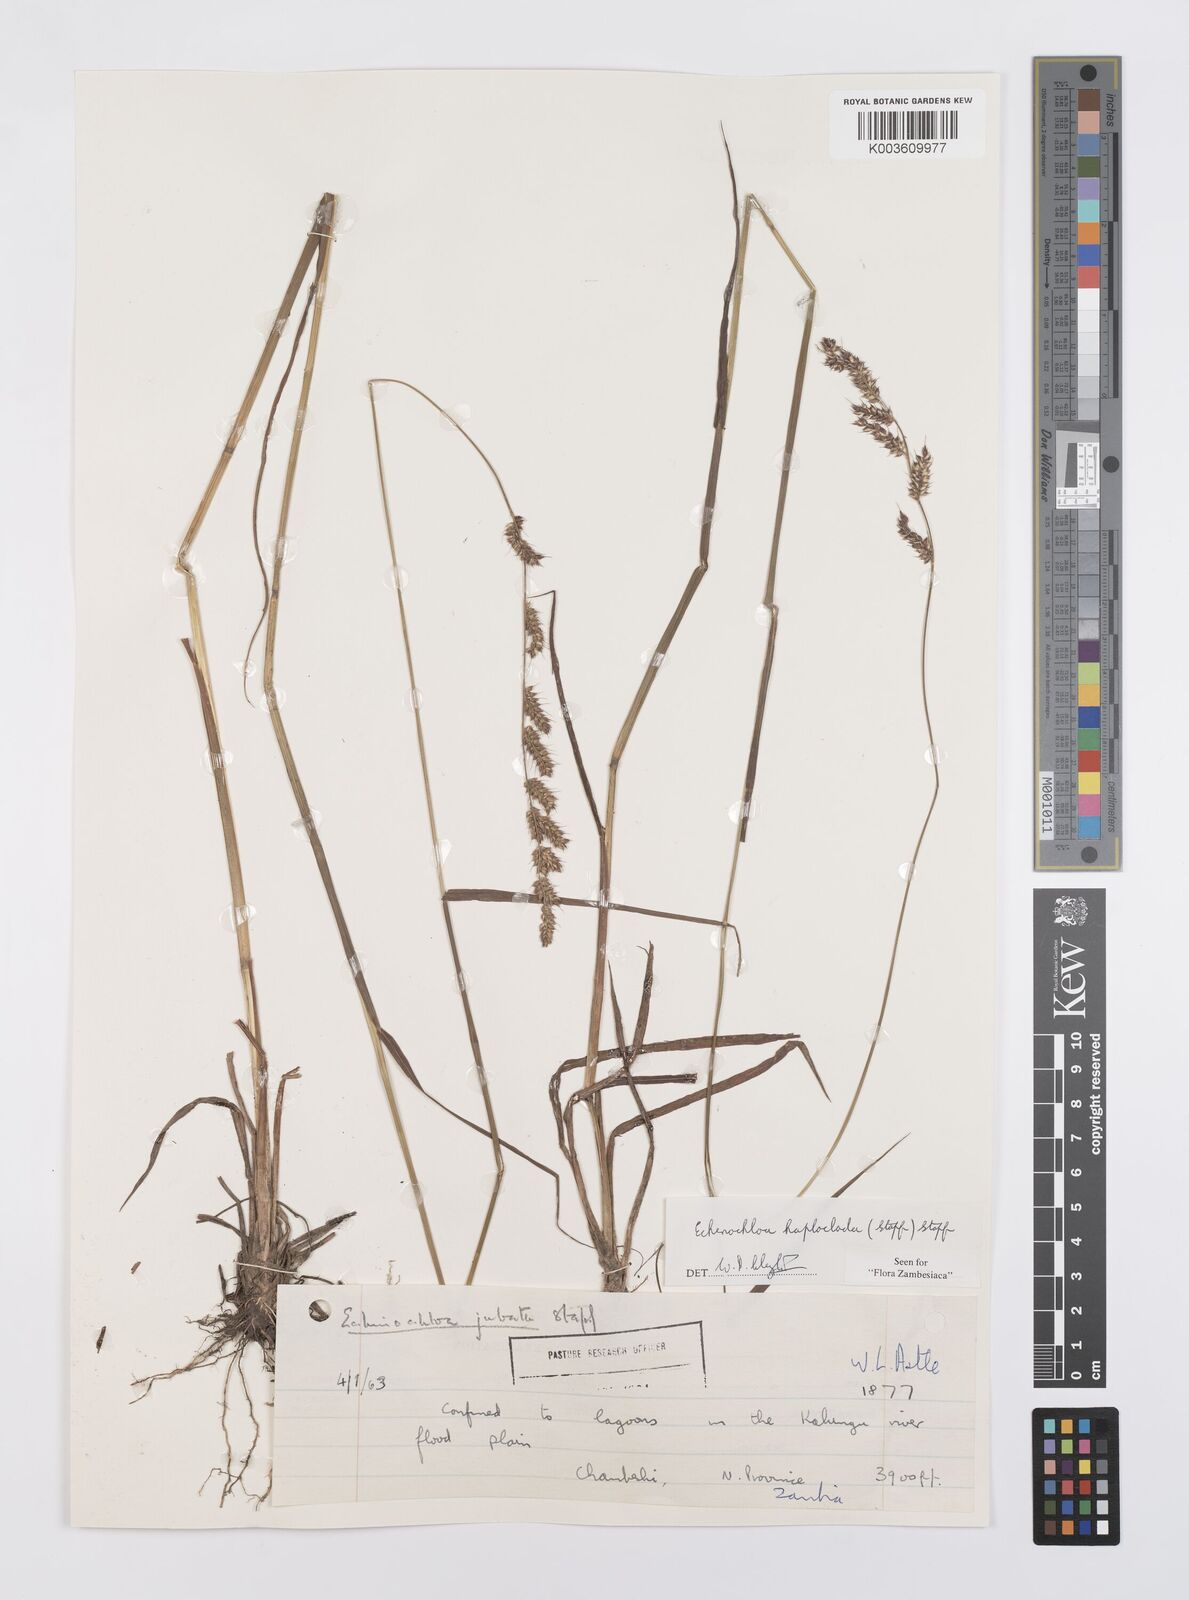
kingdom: Plantae
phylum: Tracheophyta
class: Liliopsida
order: Poales
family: Poaceae
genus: Echinochloa
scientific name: Echinochloa haploclada
